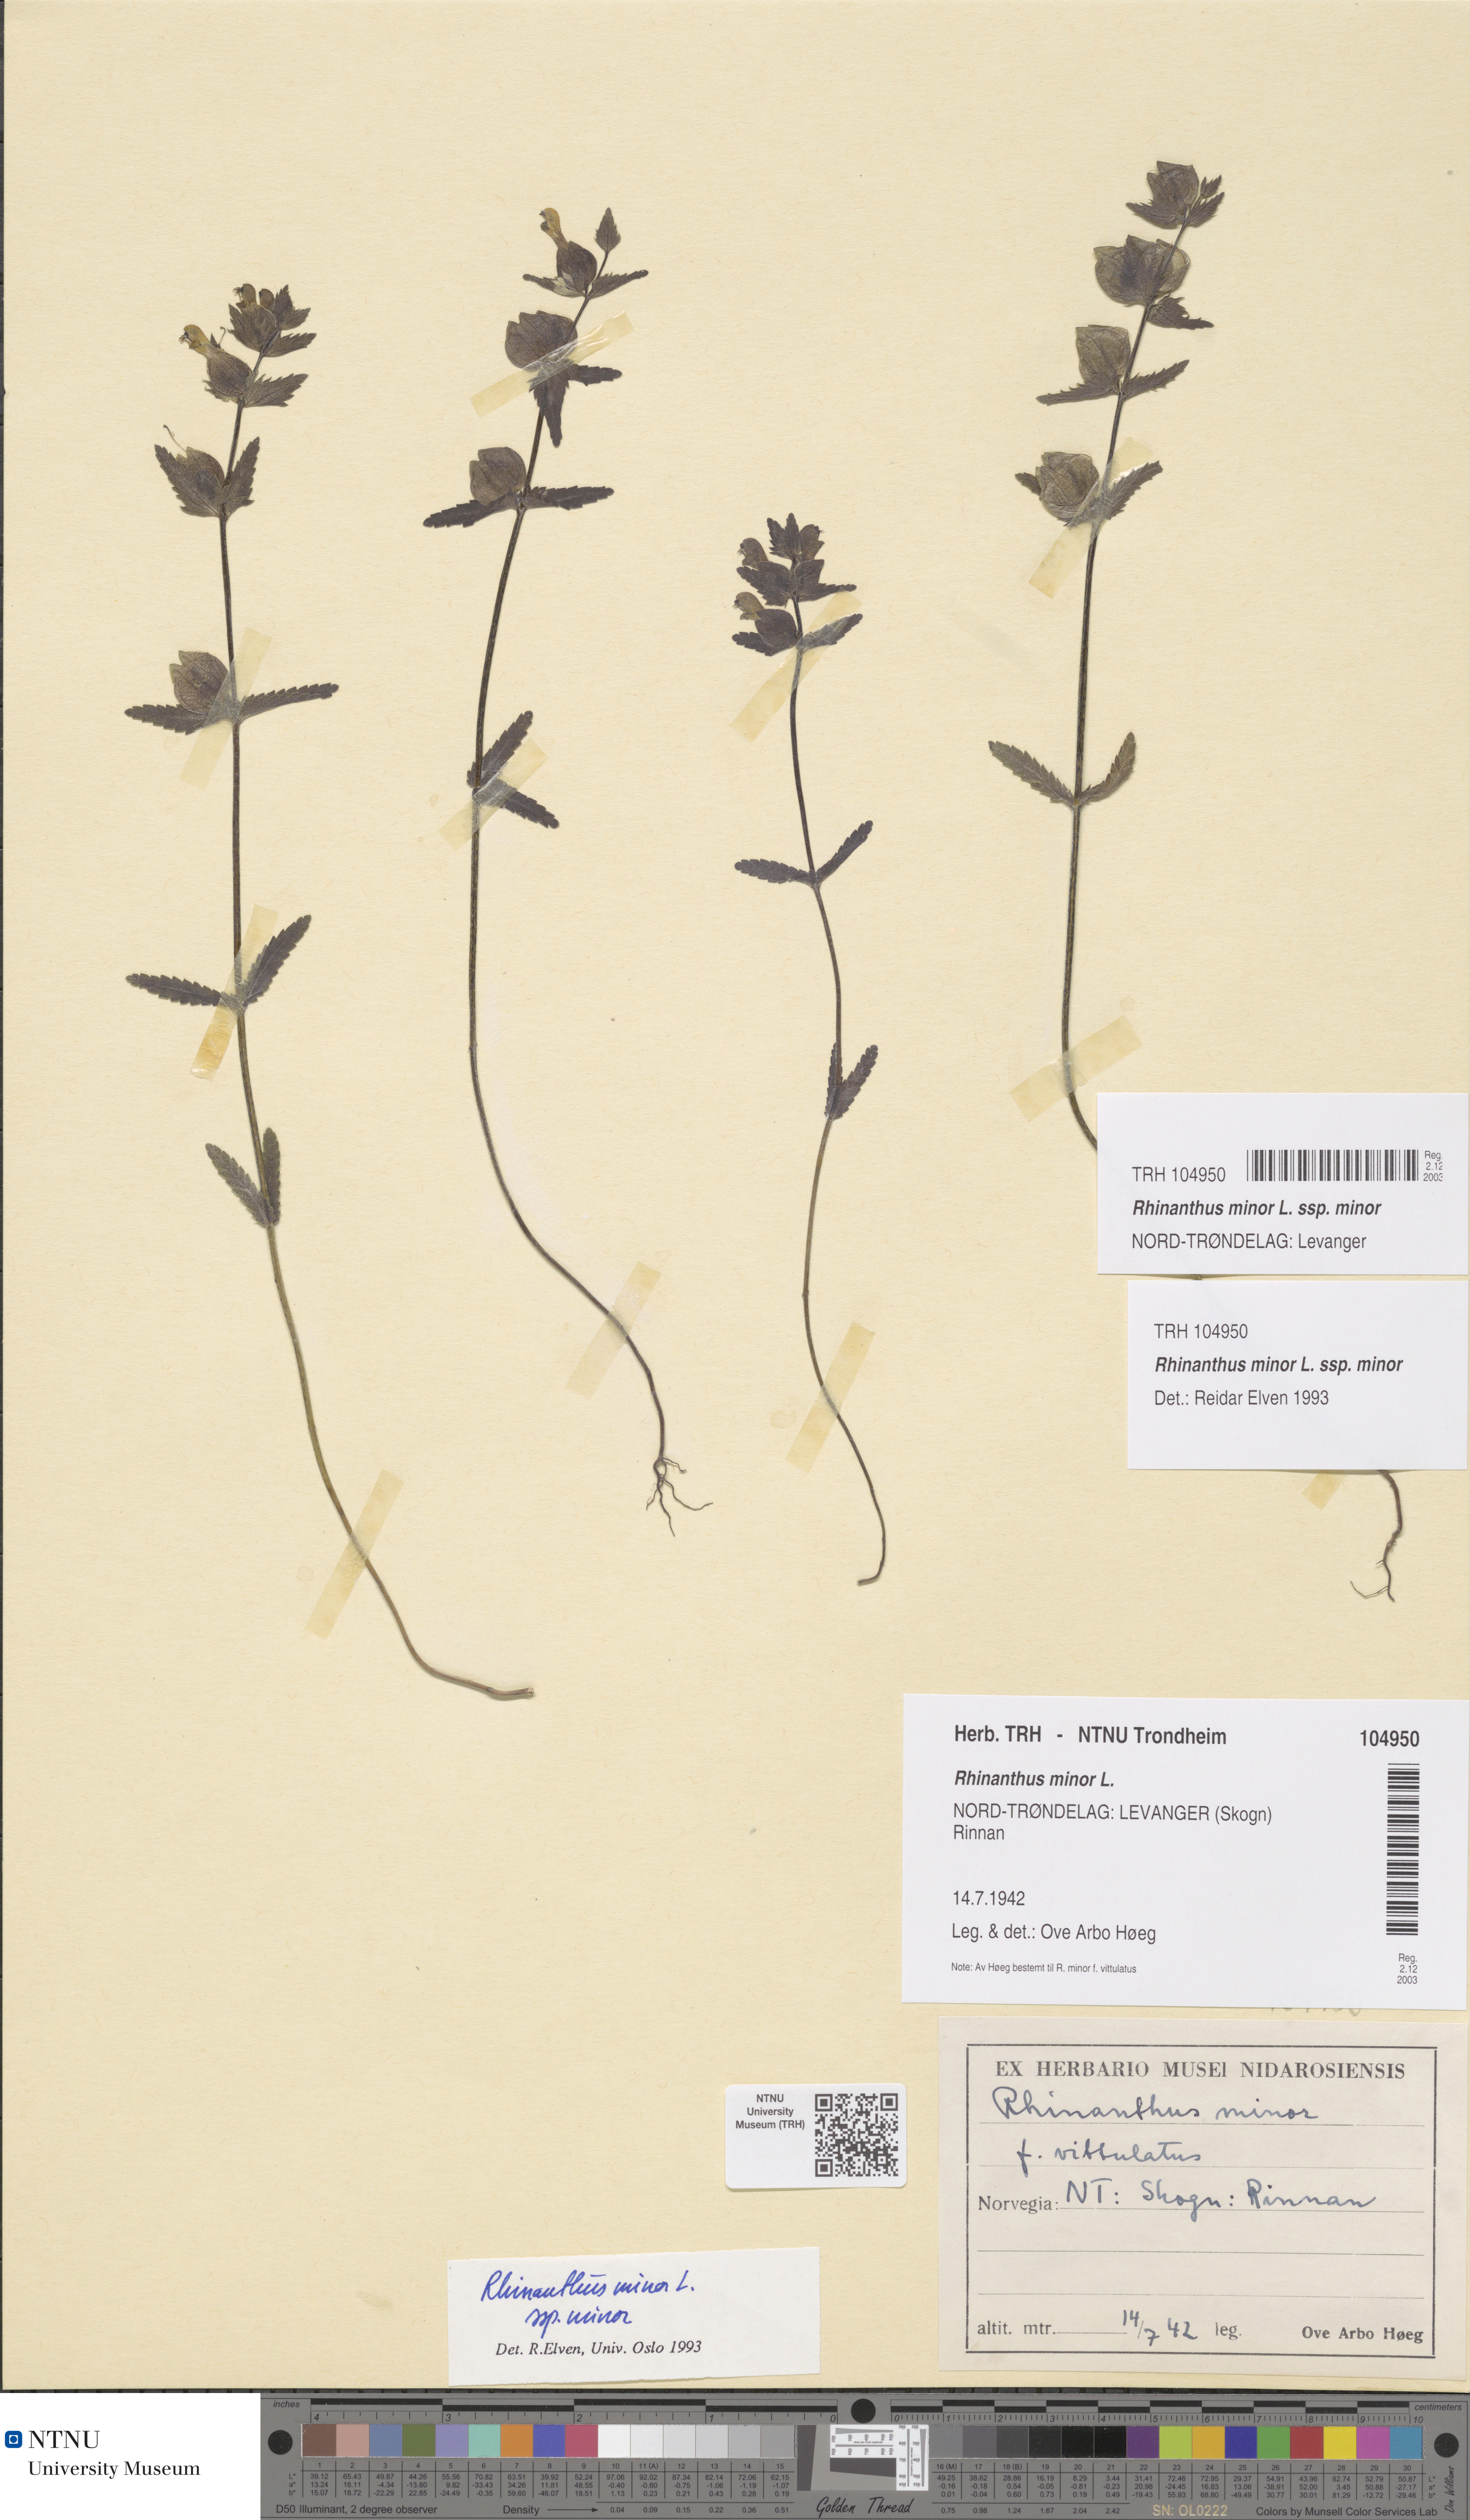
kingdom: Plantae
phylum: Tracheophyta
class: Magnoliopsida
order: Lamiales
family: Orobanchaceae
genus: Rhinanthus
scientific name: Rhinanthus minor
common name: Yellow-rattle
